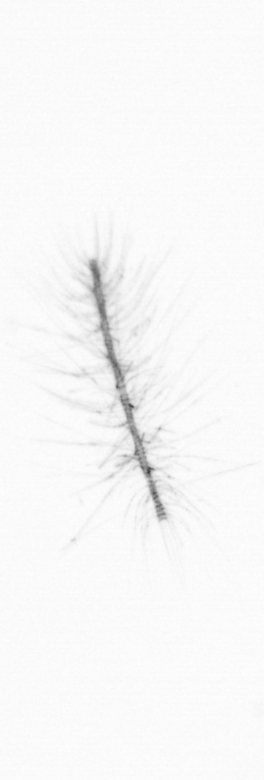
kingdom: Chromista
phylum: Ochrophyta
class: Bacillariophyceae
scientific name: Bacillariophyceae
